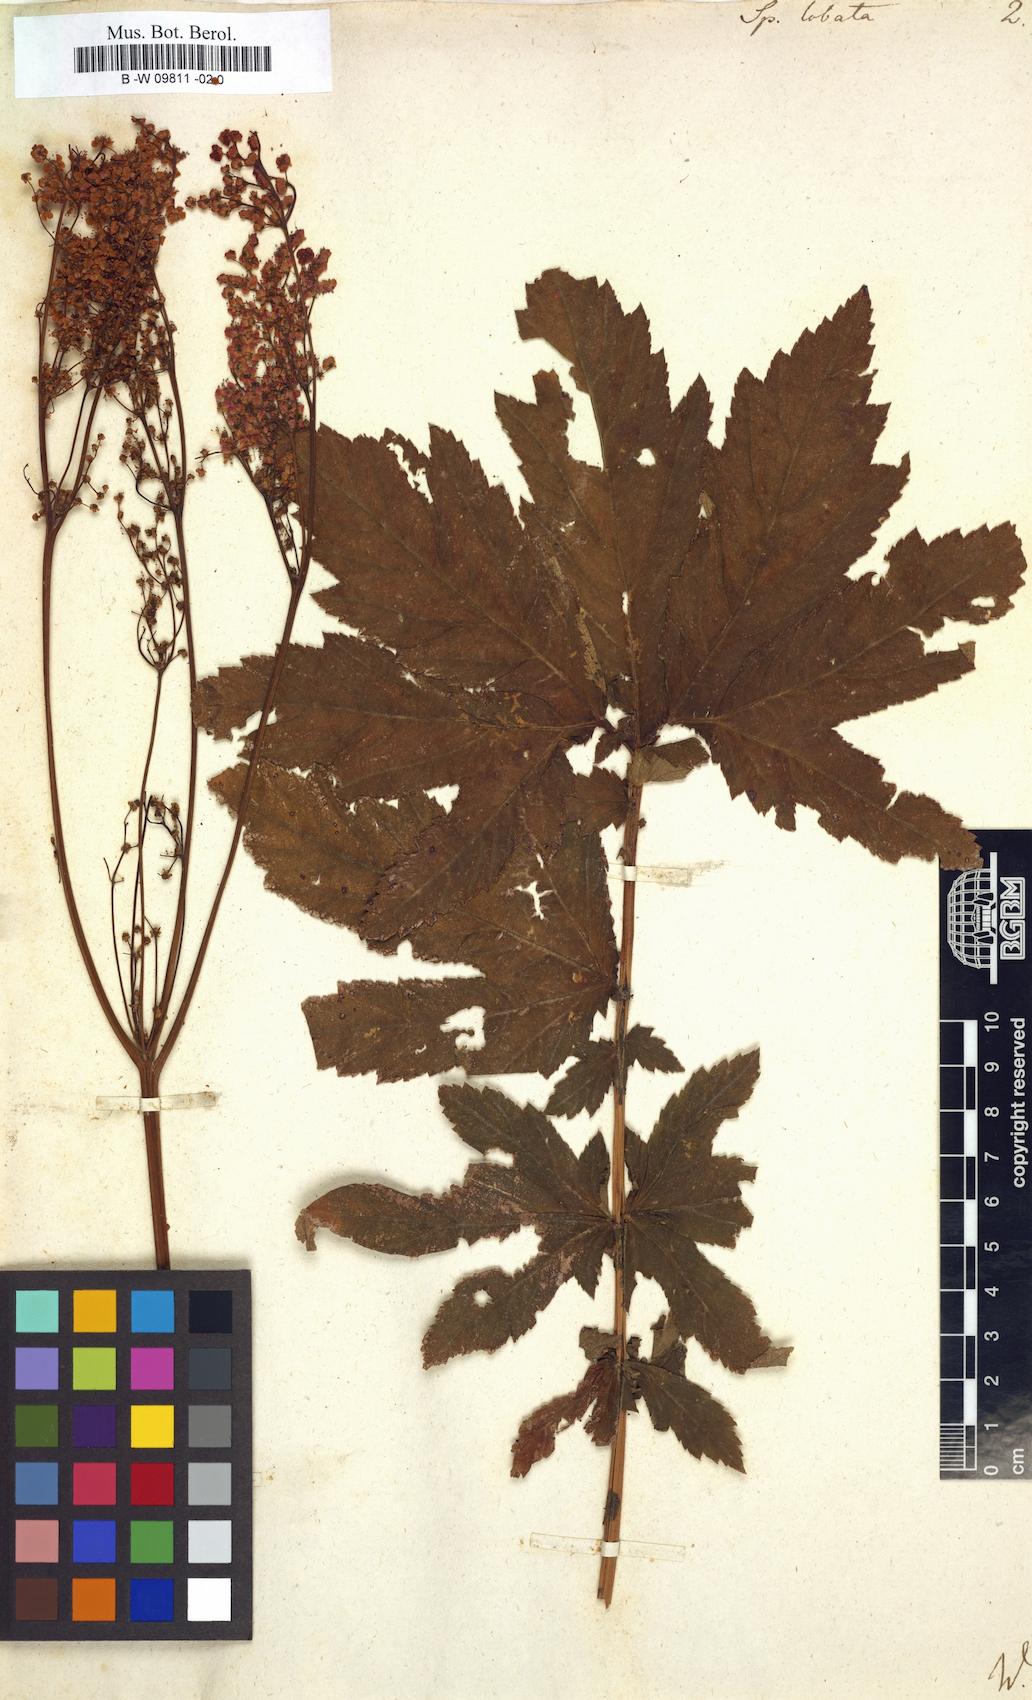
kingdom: Plantae
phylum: Tracheophyta
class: Magnoliopsida
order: Rosales
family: Rosaceae
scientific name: Rosaceae
